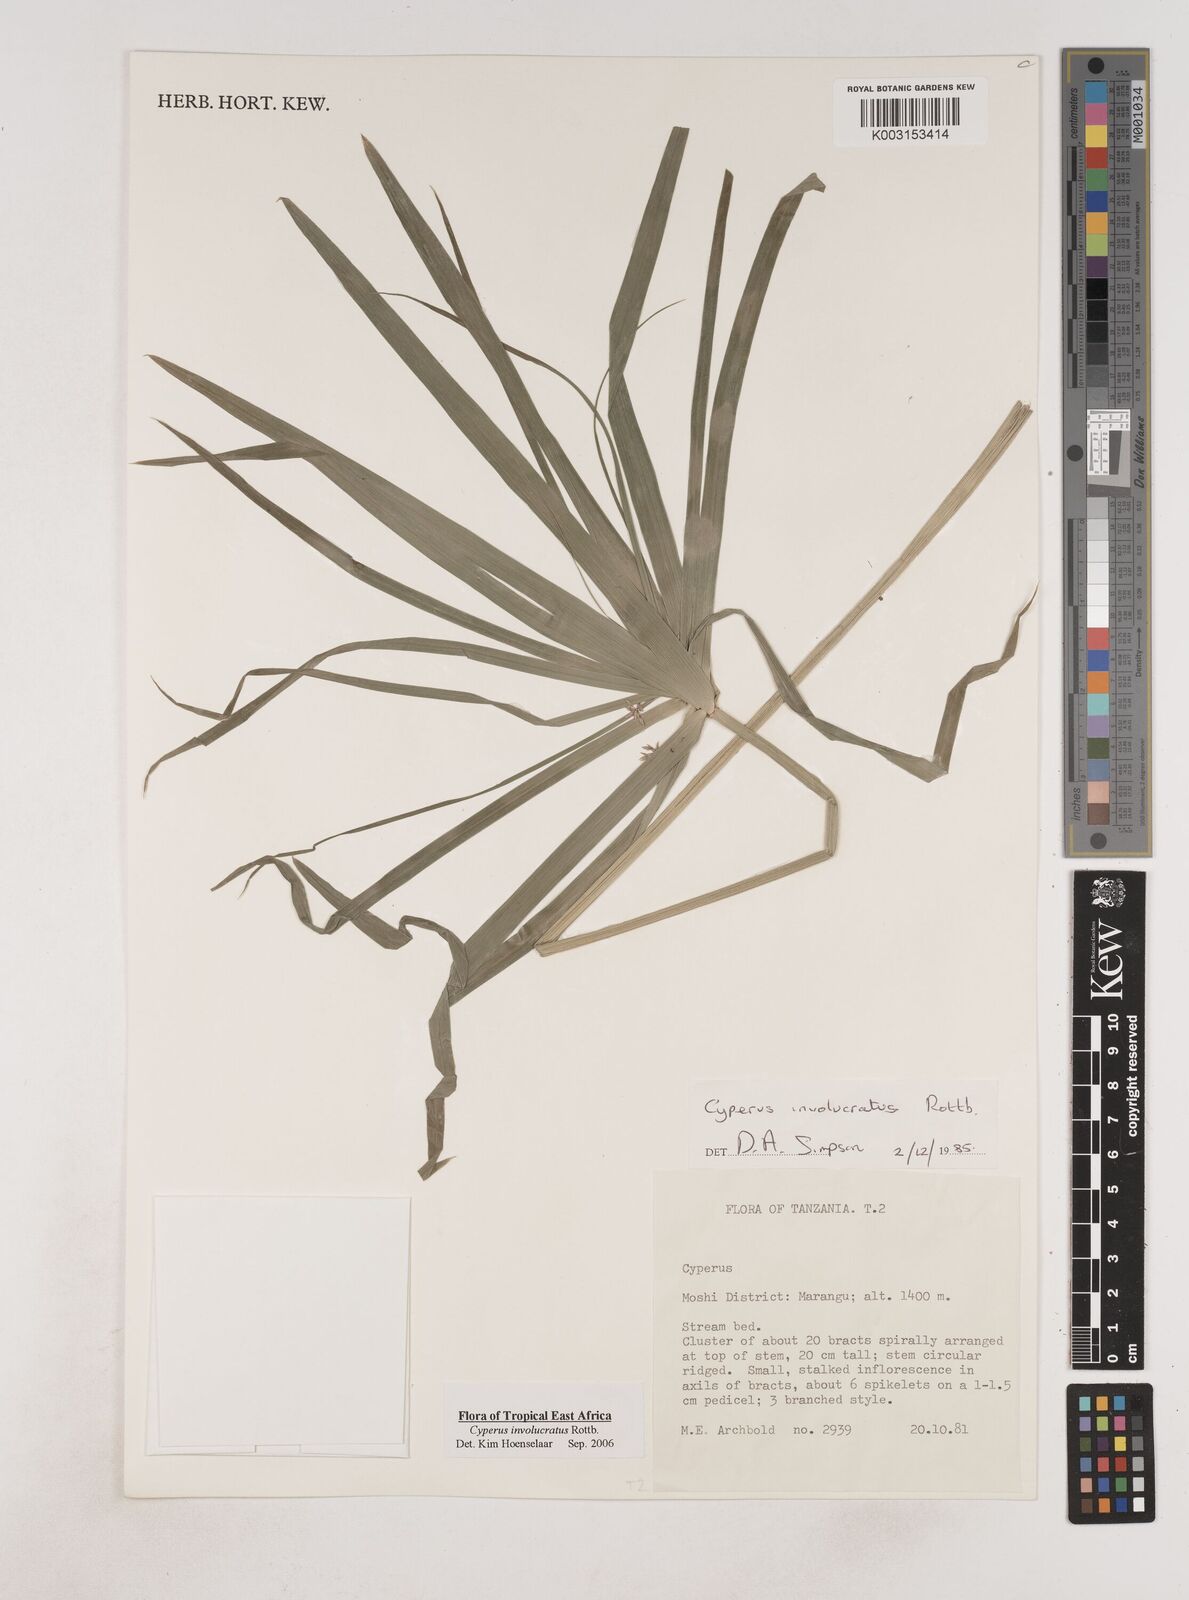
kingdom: Plantae
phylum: Tracheophyta
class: Liliopsida
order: Poales
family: Cyperaceae
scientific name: Cyperaceae
